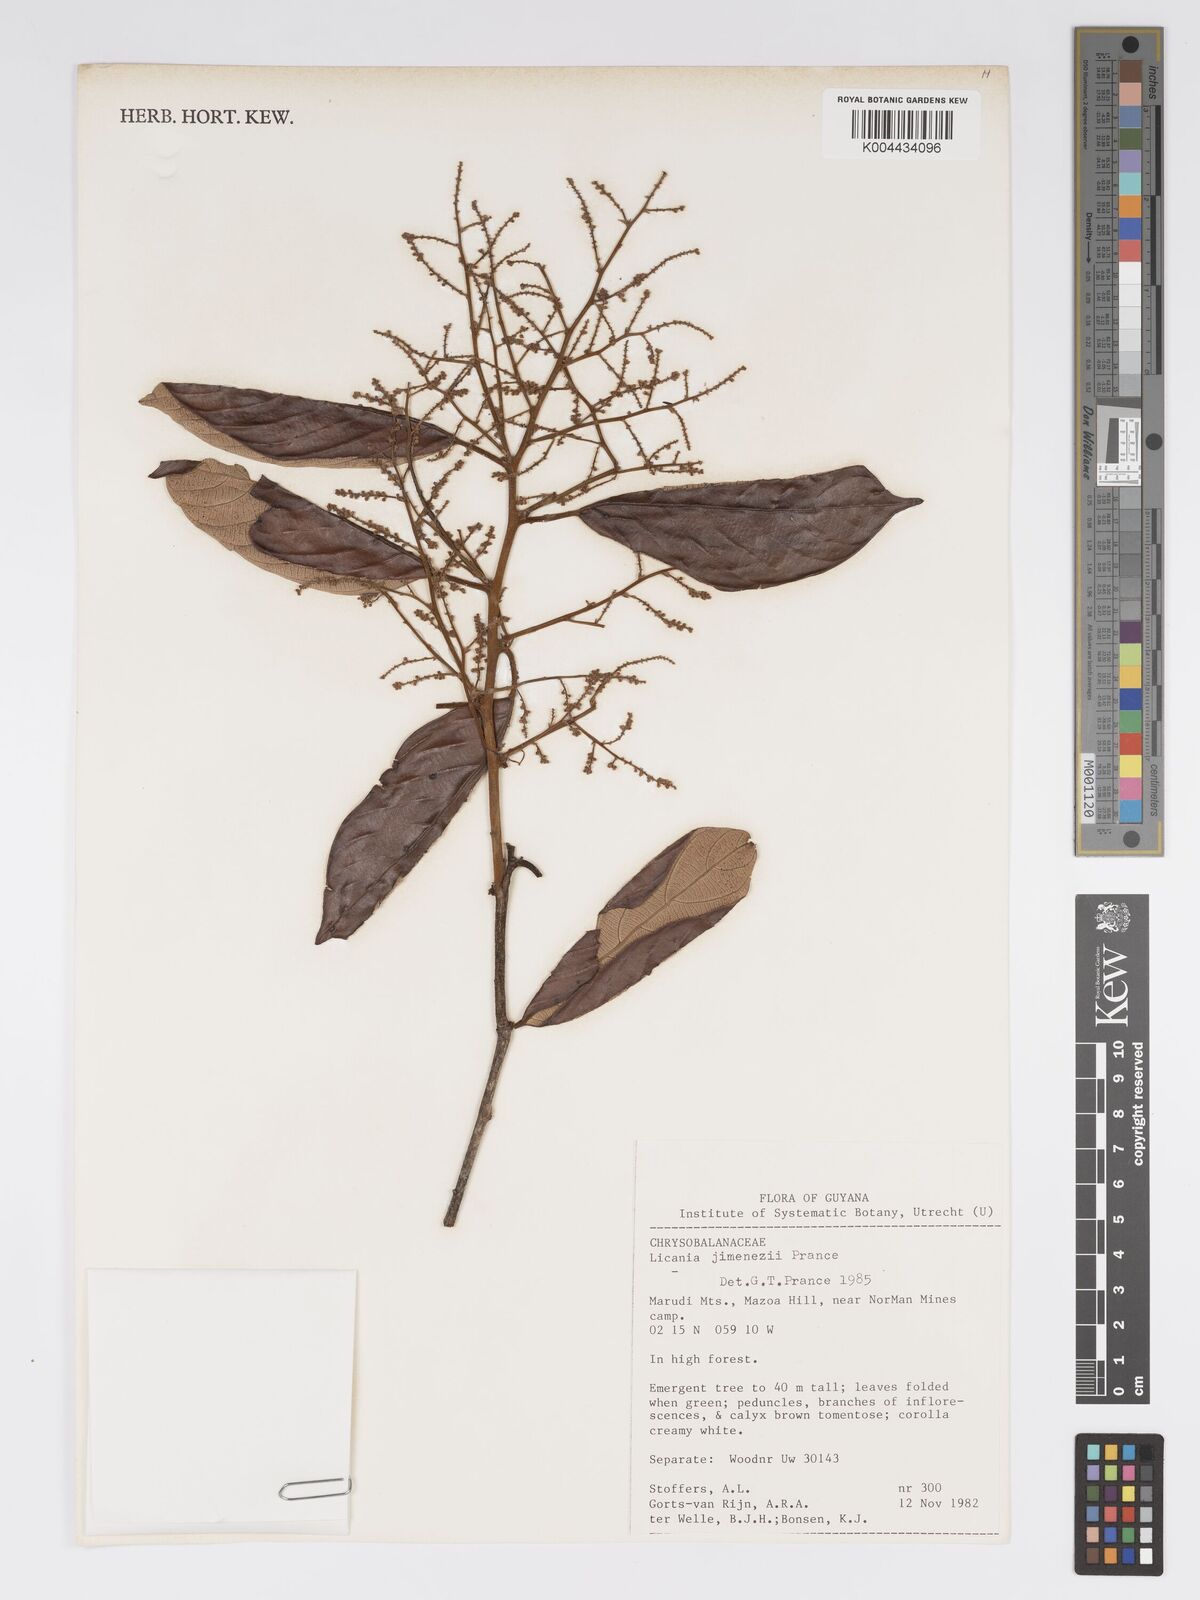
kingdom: Plantae
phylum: Tracheophyta
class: Magnoliopsida
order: Malpighiales
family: Chrysobalanaceae
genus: Licania
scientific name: Licania jimenezii
